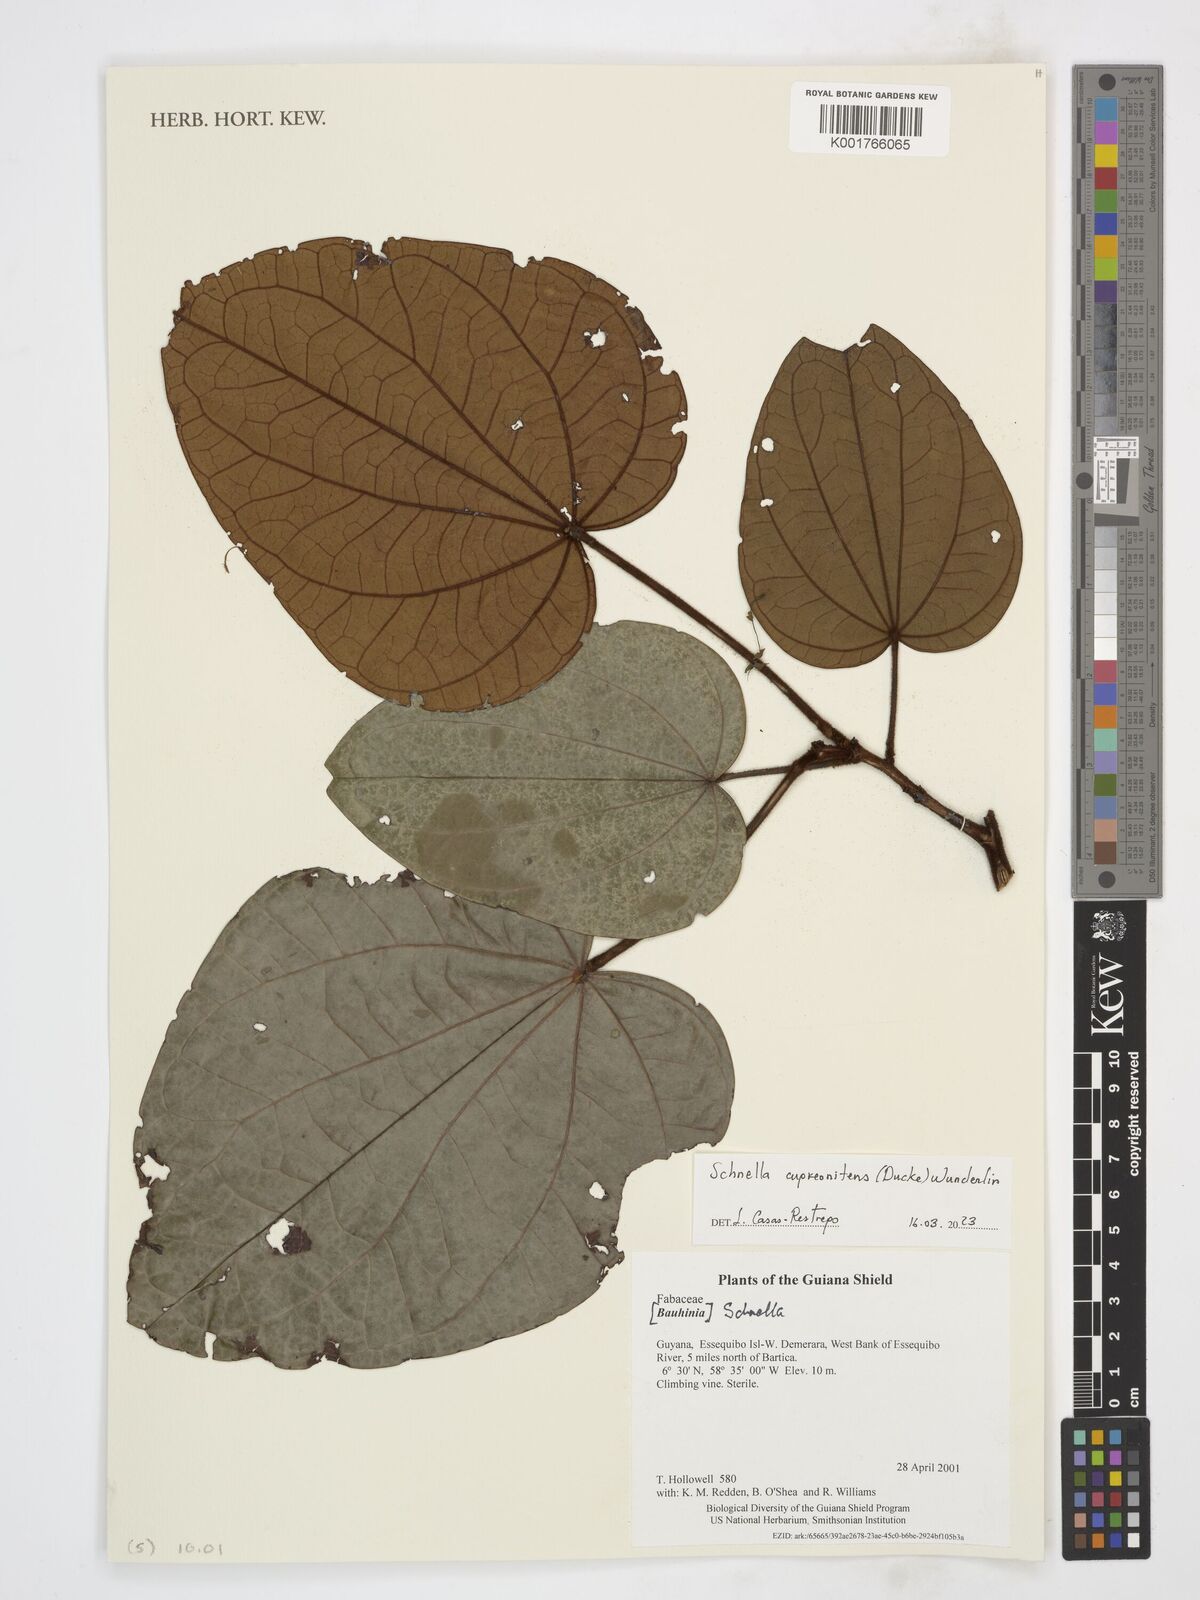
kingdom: Plantae
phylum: Tracheophyta
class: Magnoliopsida
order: Fabales
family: Fabaceae
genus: Schnella
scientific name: Schnella cupreonitens
